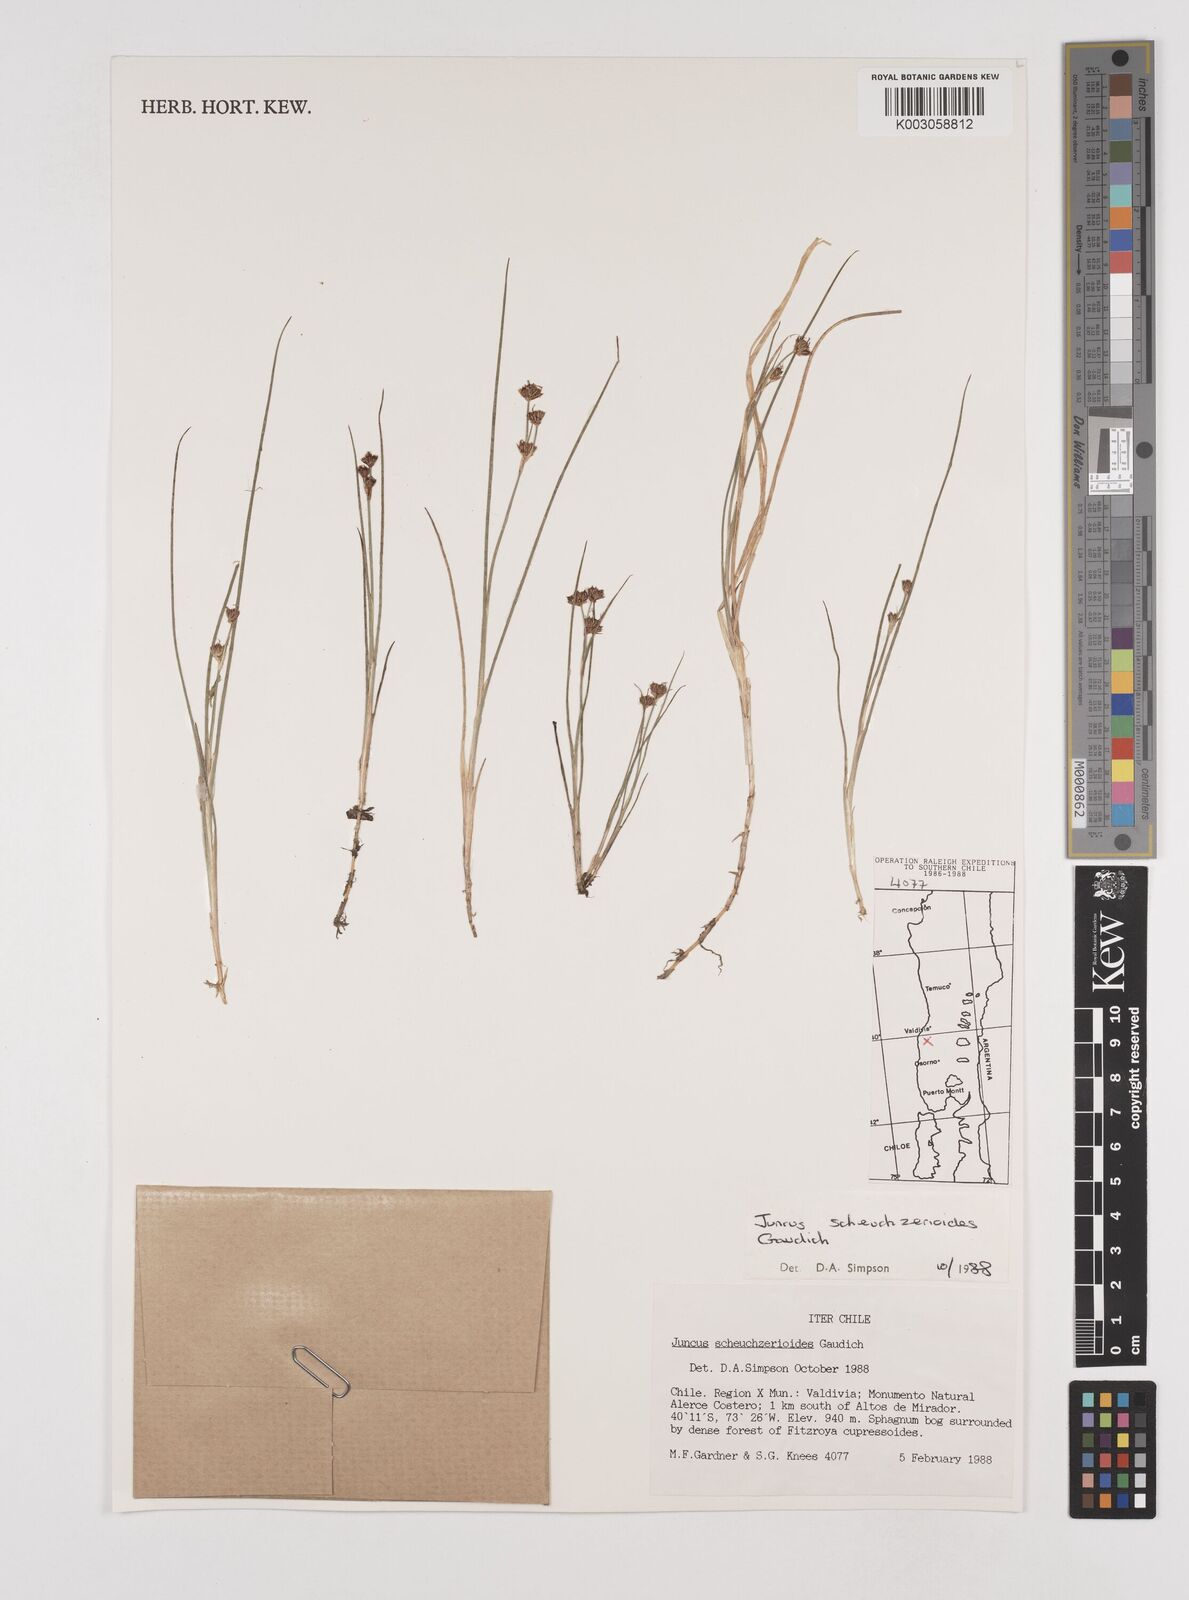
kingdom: Plantae
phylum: Tracheophyta
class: Liliopsida
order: Poales
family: Juncaceae
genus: Juncus
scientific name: Juncus scheuchzerioides
